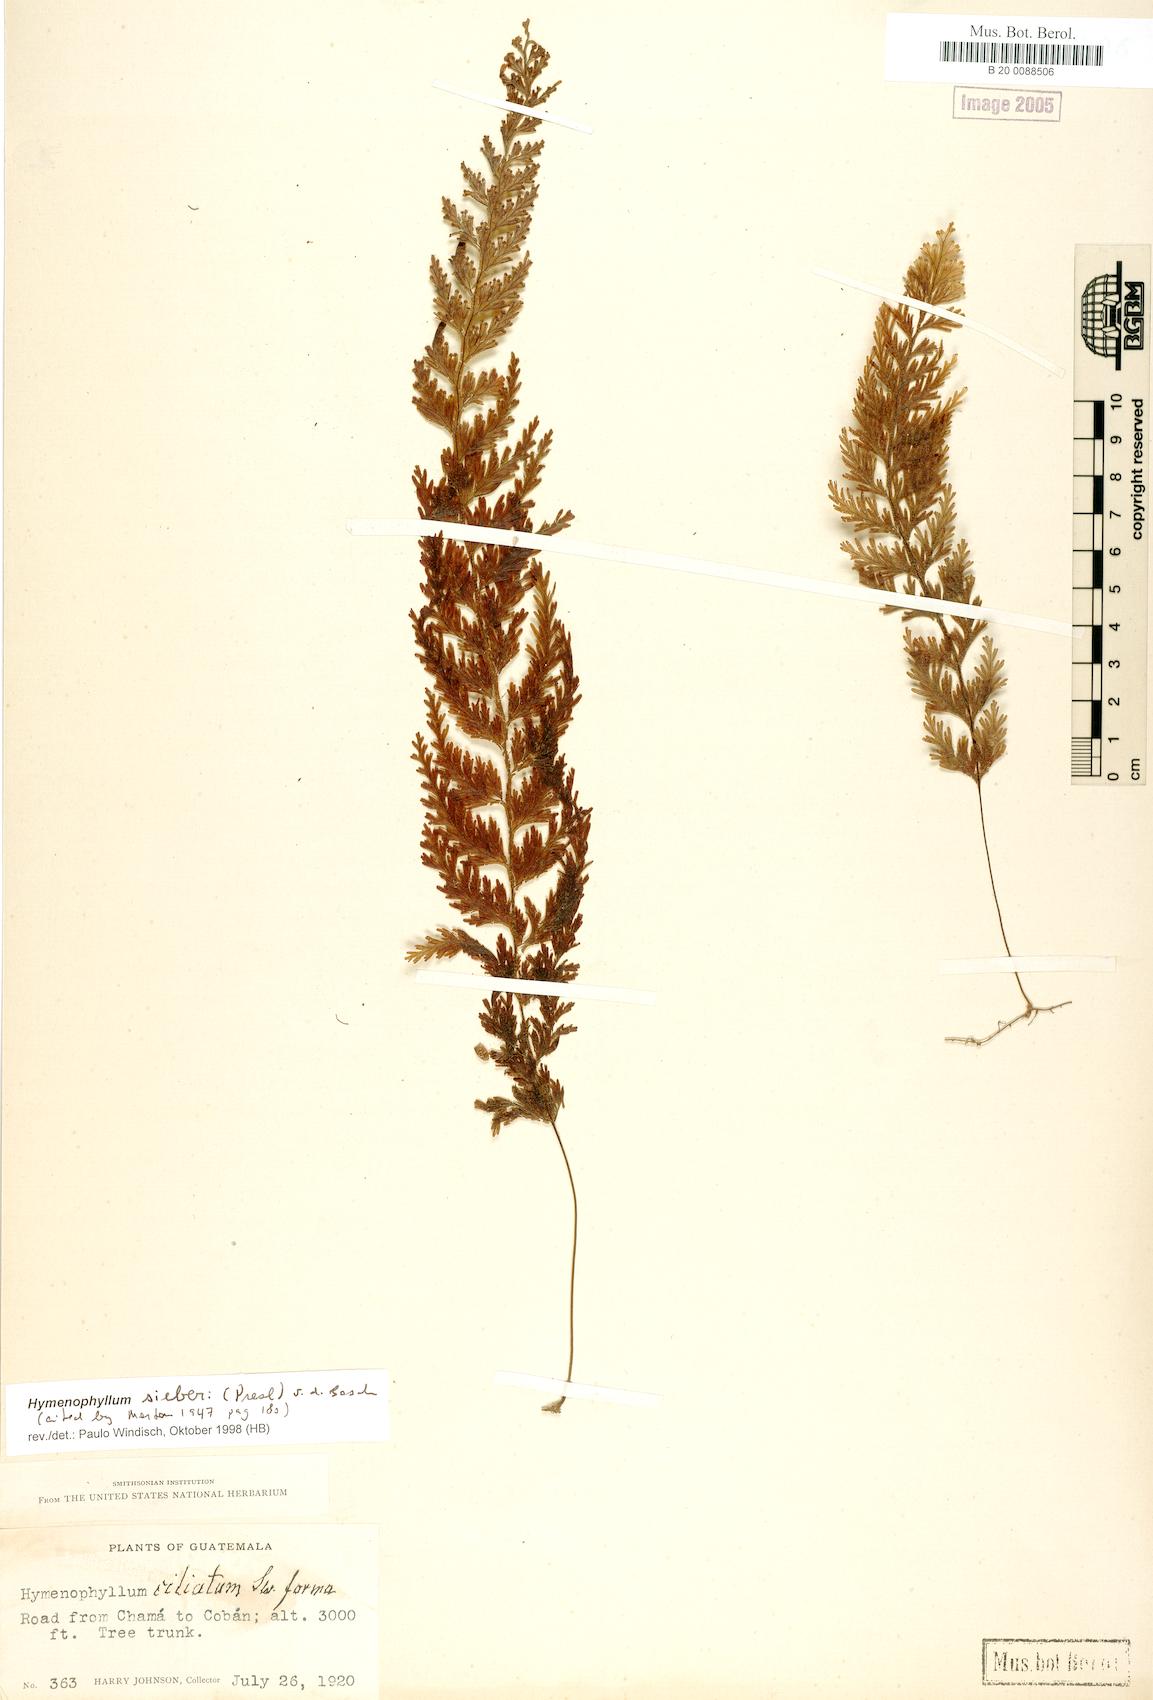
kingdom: Plantae
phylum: Tracheophyta
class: Polypodiopsida
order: Hymenophyllales
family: Hymenophyllaceae
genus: Hymenophyllum
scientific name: Hymenophyllum sieberi
